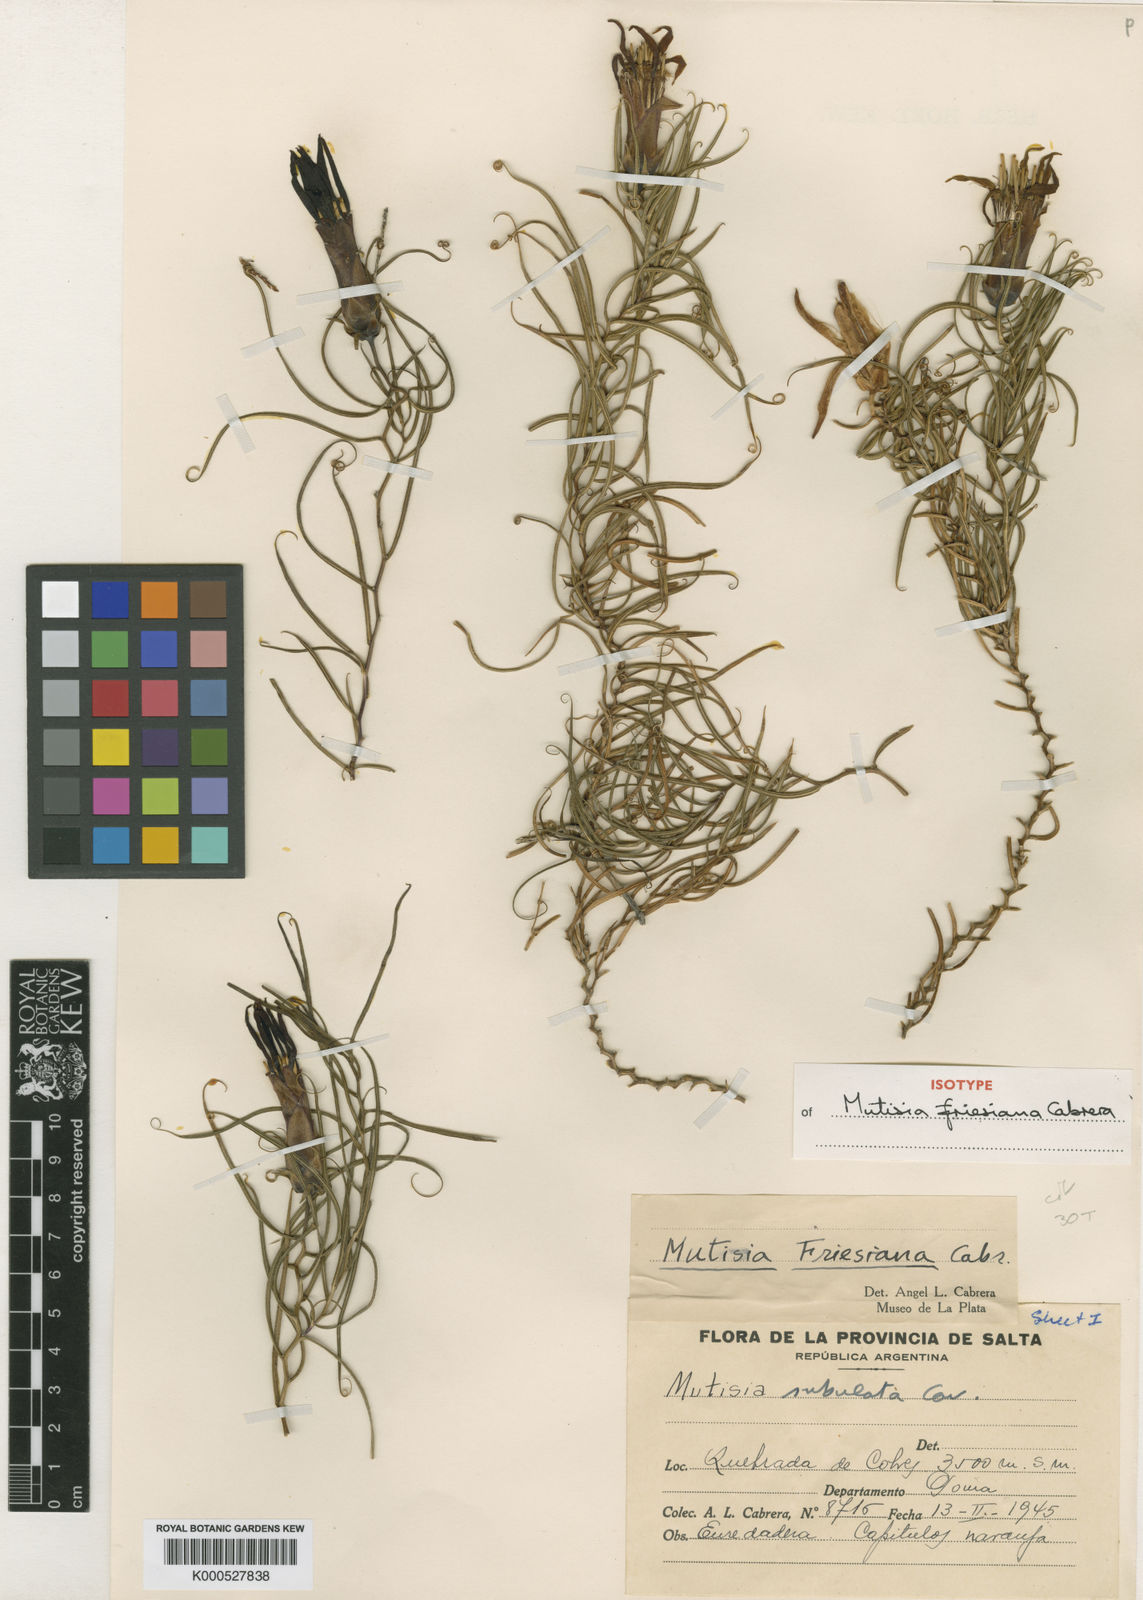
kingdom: Plantae
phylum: Tracheophyta
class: Magnoliopsida
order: Asterales
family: Asteraceae
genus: Mutisia
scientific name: Mutisia friesiana
